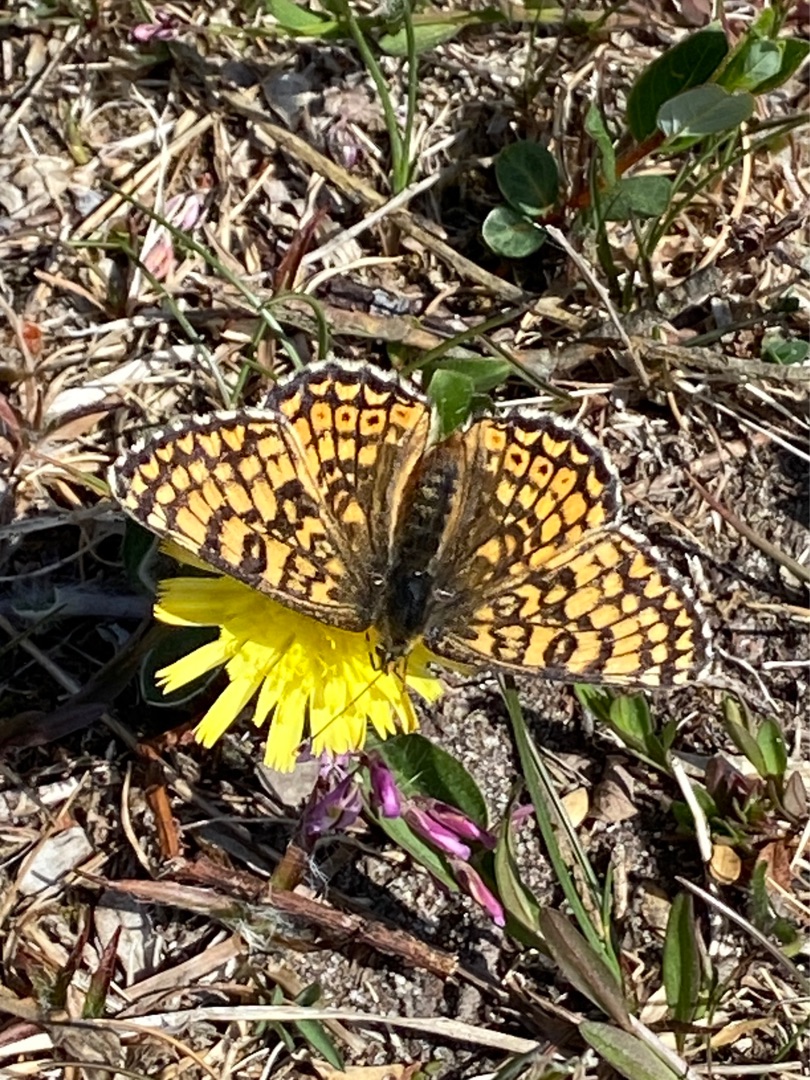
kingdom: Animalia
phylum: Arthropoda
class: Insecta
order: Lepidoptera
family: Nymphalidae
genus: Melitaea
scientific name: Melitaea cinxia
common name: Okkergul pletvinge
